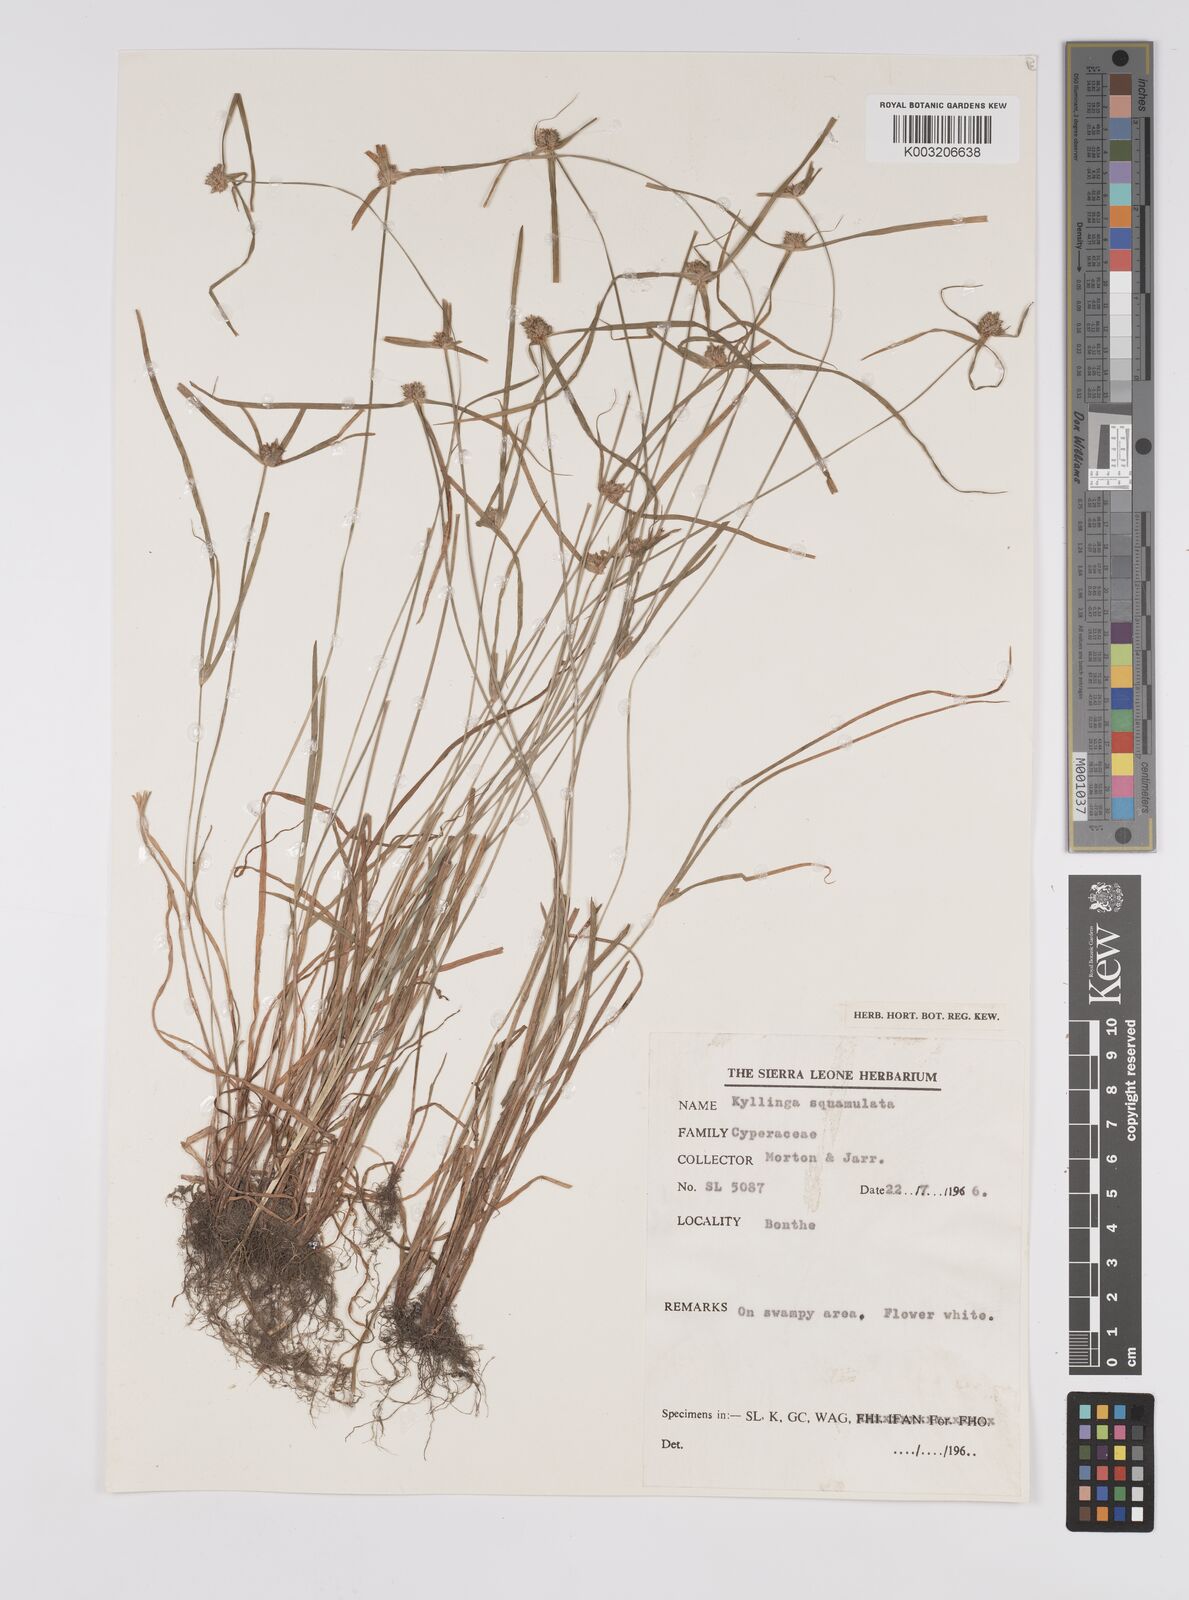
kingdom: Plantae
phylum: Tracheophyta
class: Liliopsida
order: Poales
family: Cyperaceae
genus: Cyperus
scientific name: Cyperus distans
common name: Slender cyperus
